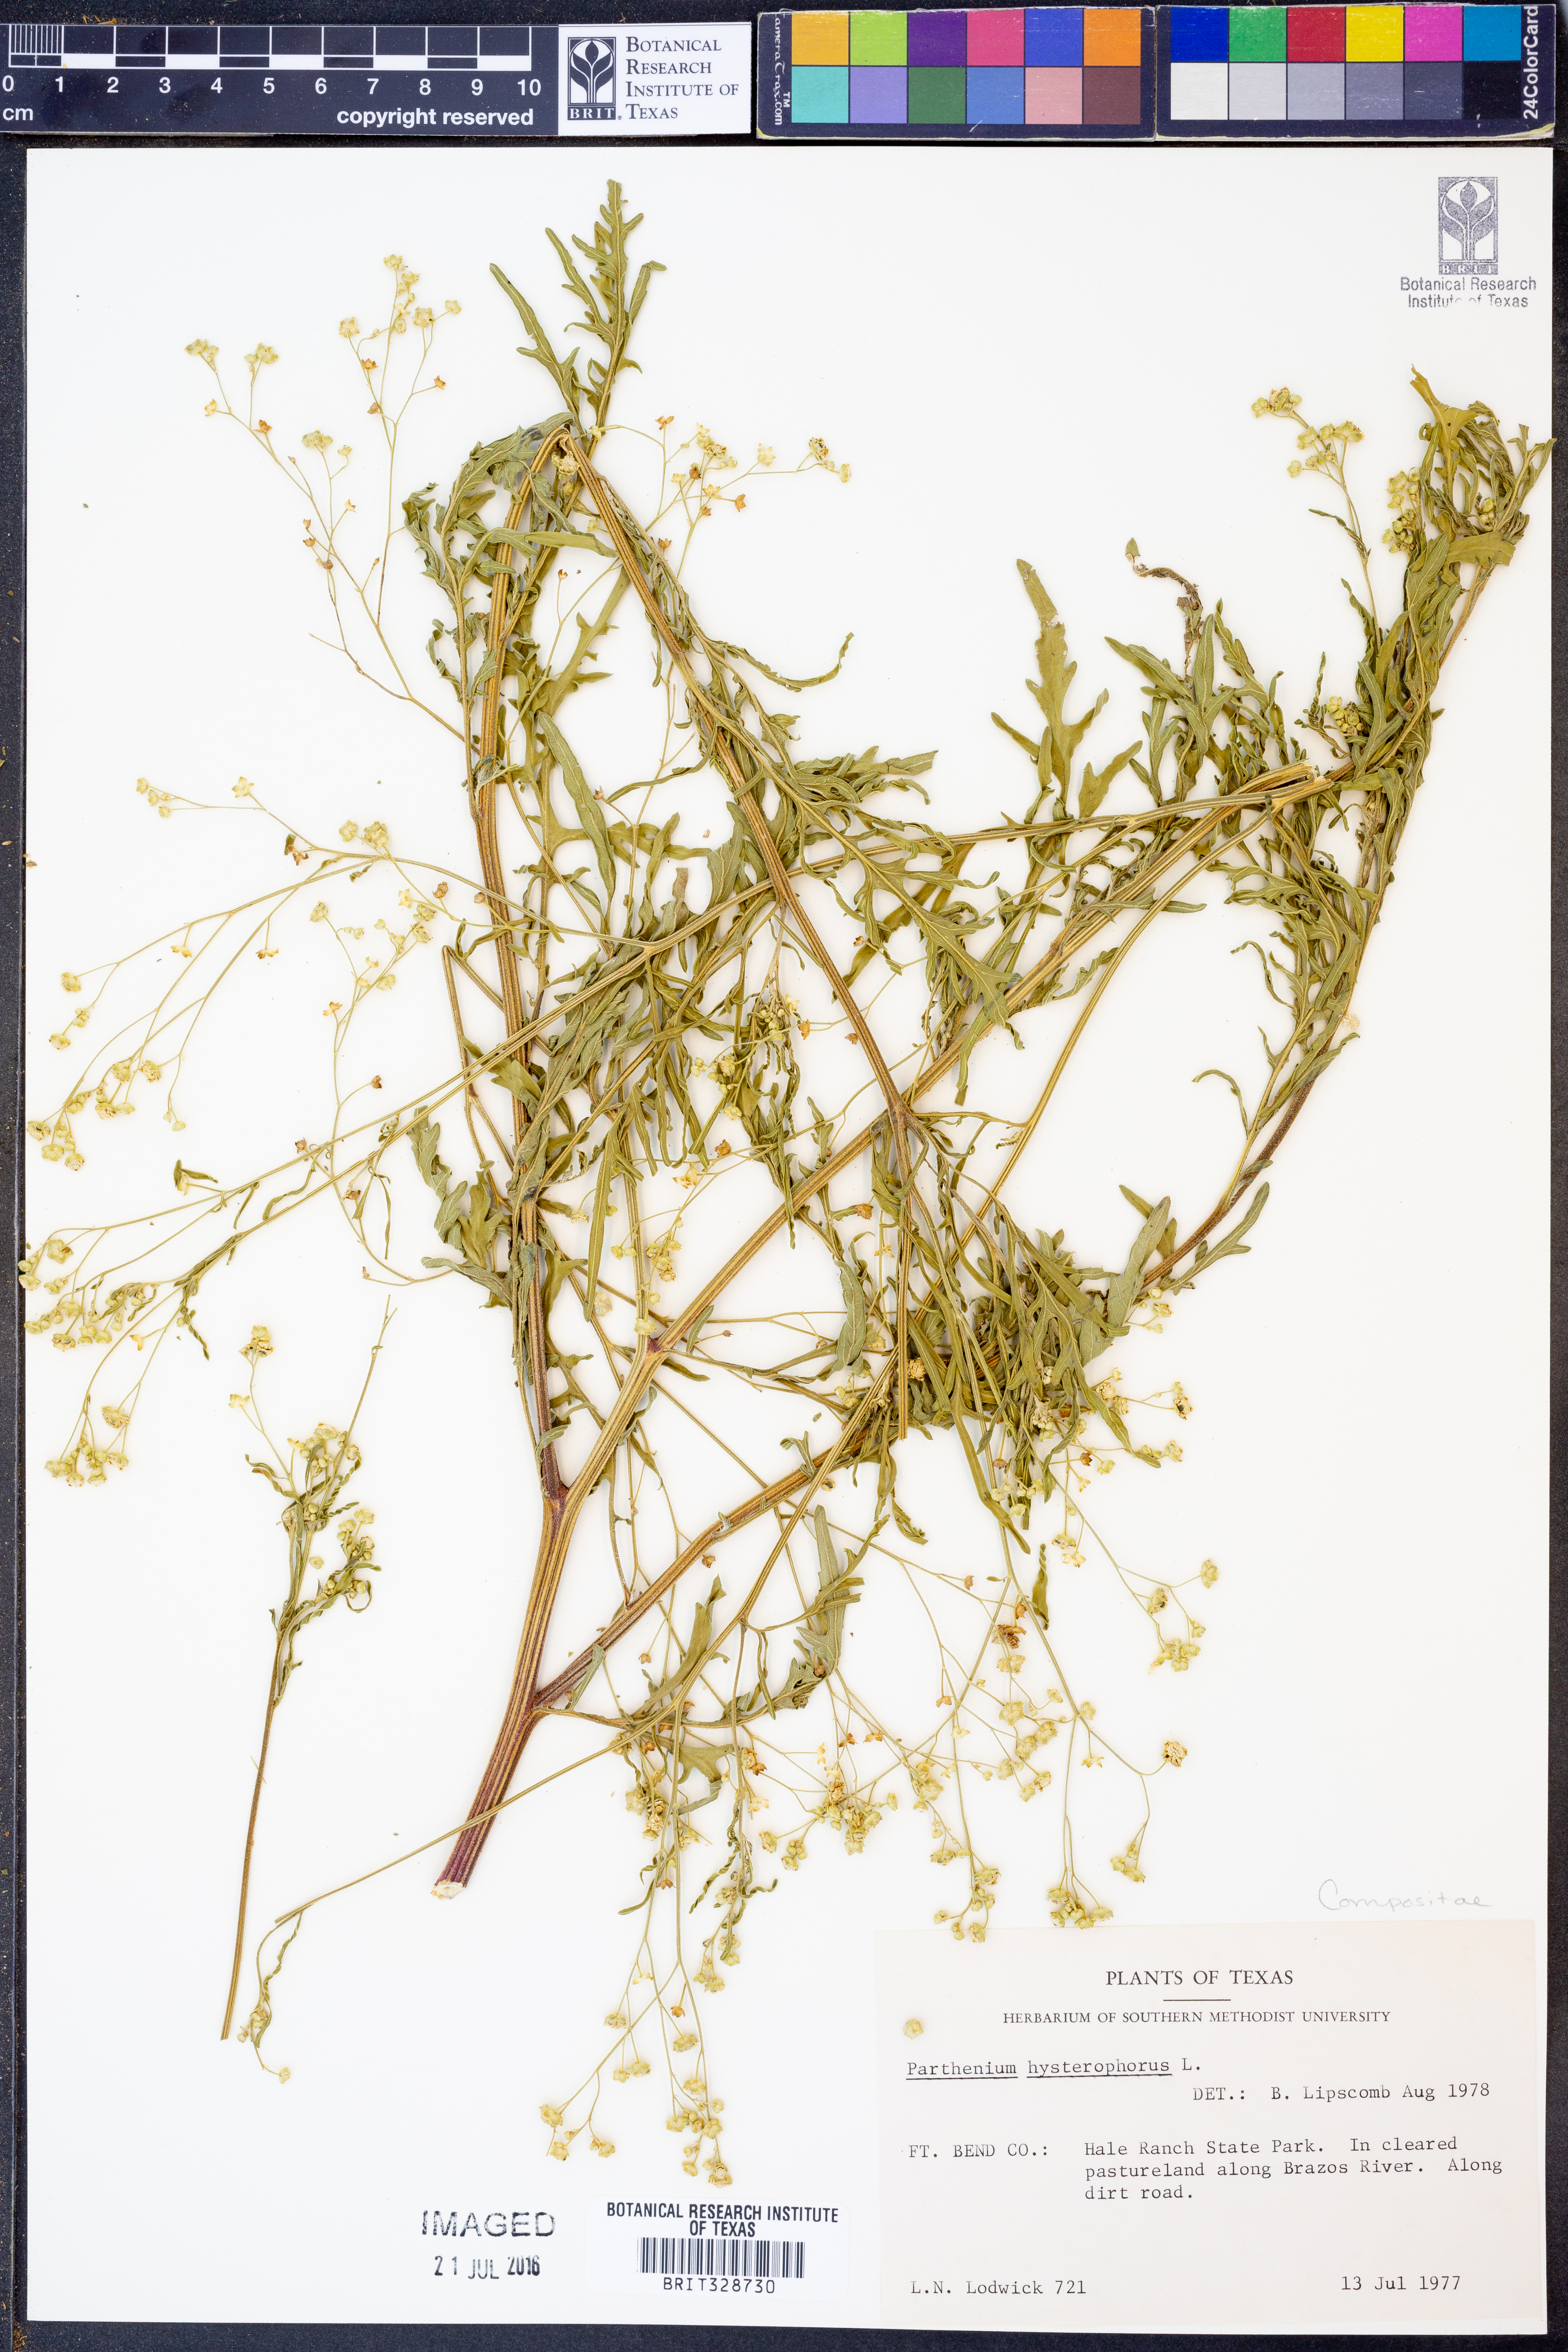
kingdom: Plantae
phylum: Tracheophyta
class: Magnoliopsida
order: Asterales
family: Asteraceae
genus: Parthenium
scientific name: Parthenium hysterophorus
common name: Santa maria feverfew
